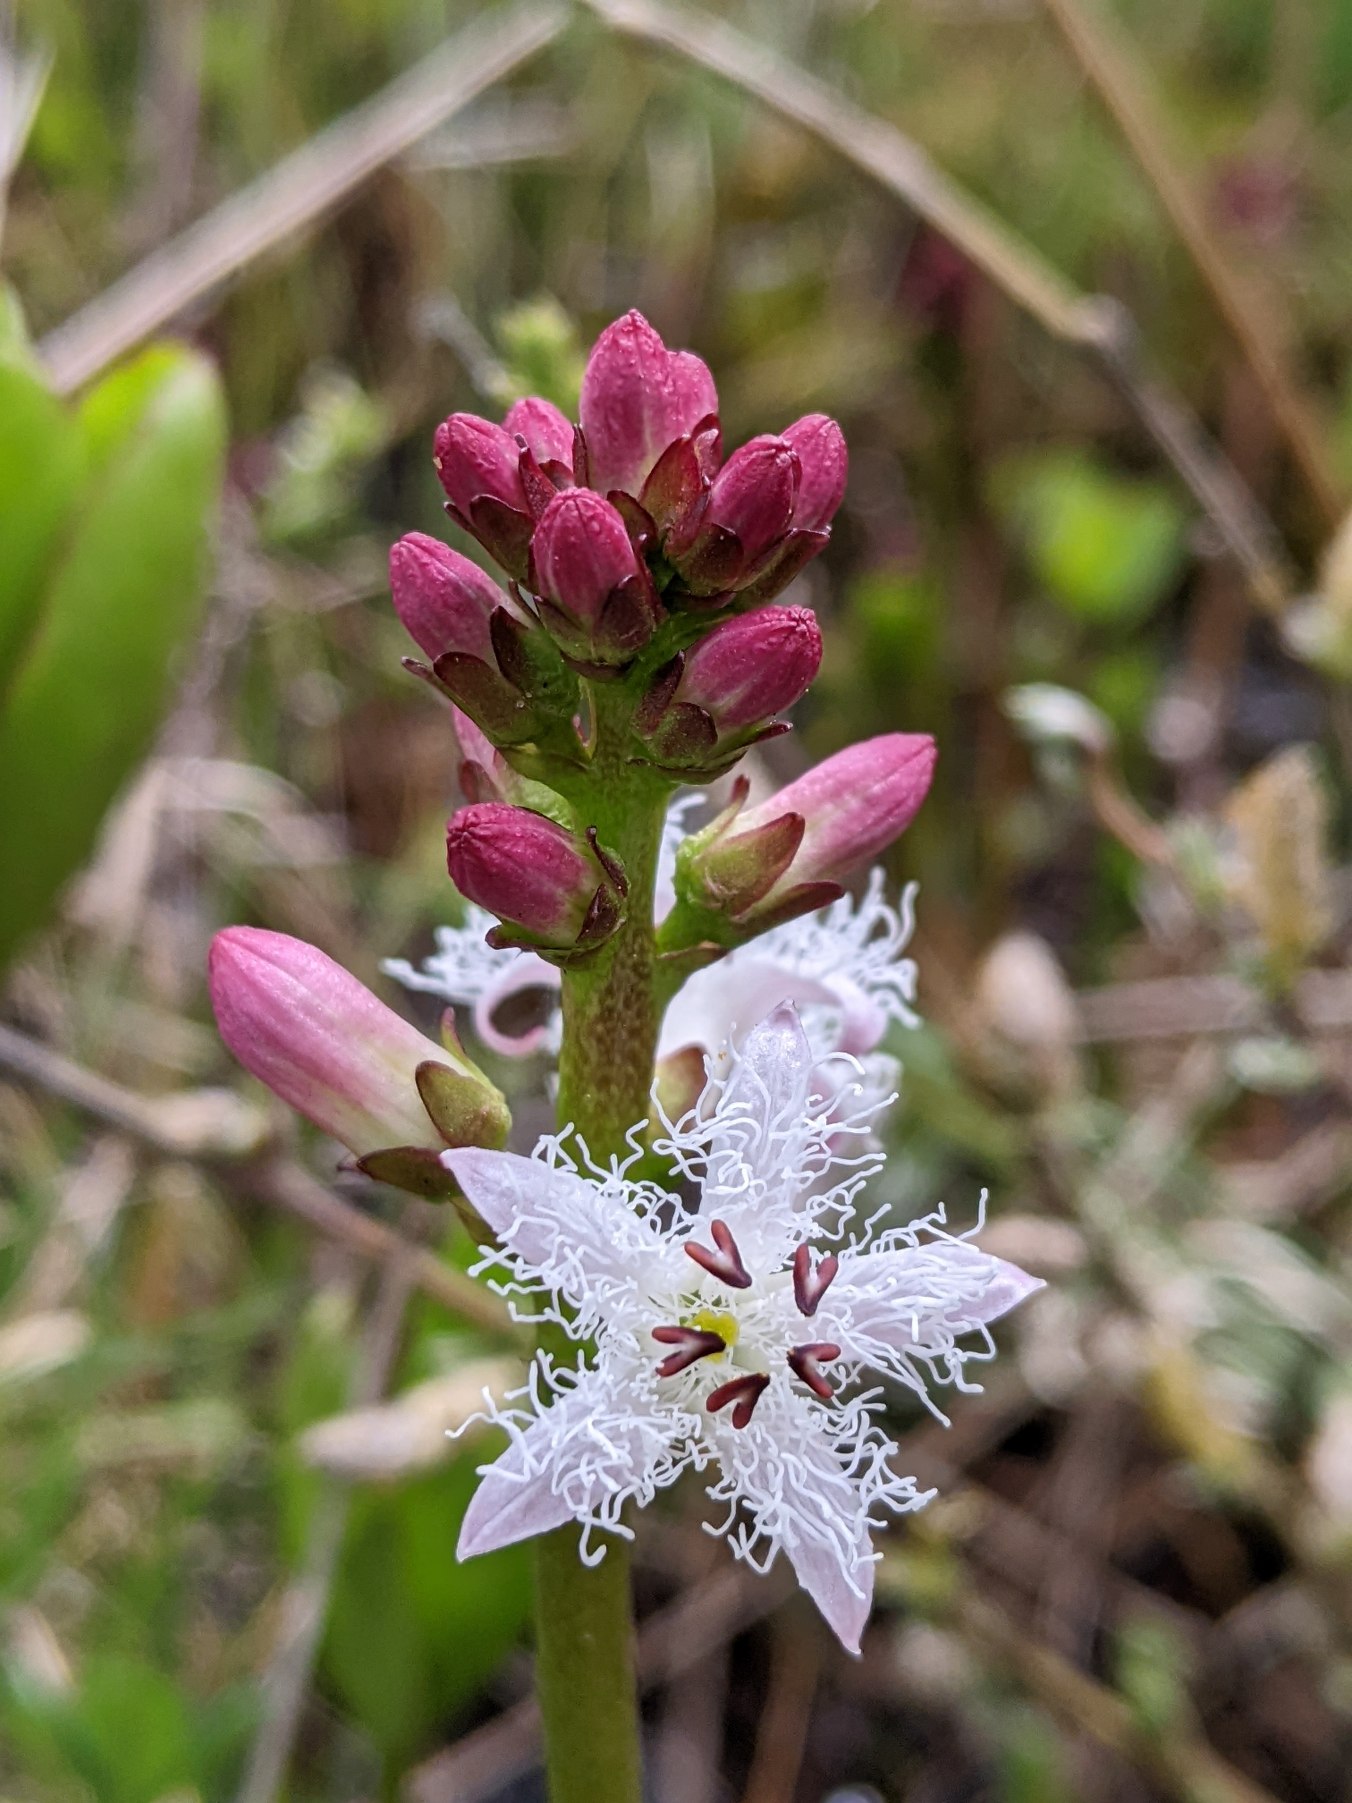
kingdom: Plantae
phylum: Tracheophyta
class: Magnoliopsida
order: Asterales
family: Menyanthaceae
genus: Menyanthes
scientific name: Menyanthes trifoliata
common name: Bukkeblad
